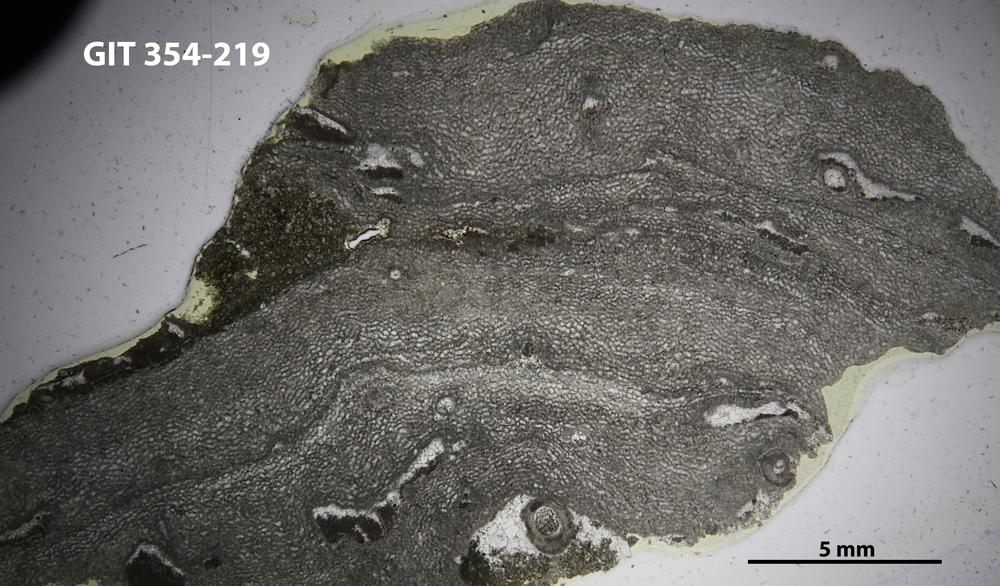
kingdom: Animalia
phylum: Porifera
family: Clathrodictyidae
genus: Clathrodictyon
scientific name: Clathrodictyon kudriavzevi
